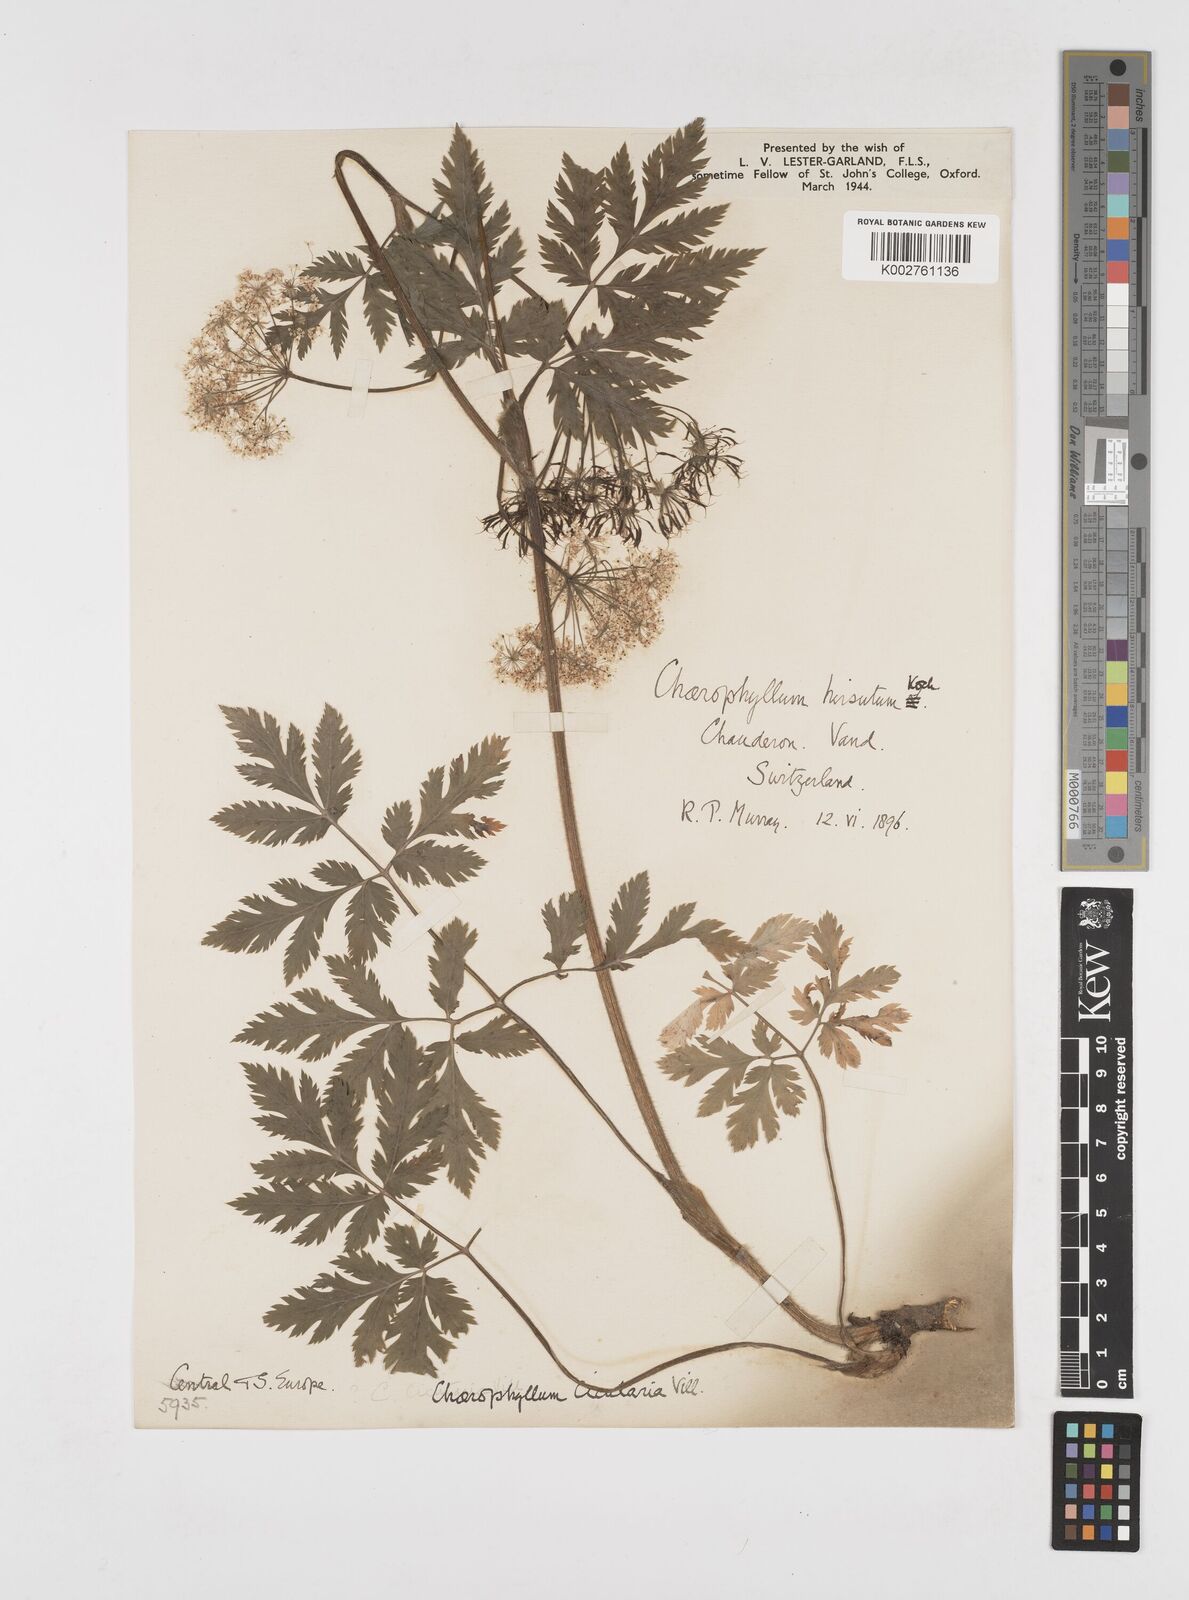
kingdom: Plantae
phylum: Tracheophyta
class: Magnoliopsida
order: Apiales
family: Apiaceae
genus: Chaerophyllum
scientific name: Chaerophyllum hirsutum
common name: Hairy chervil
